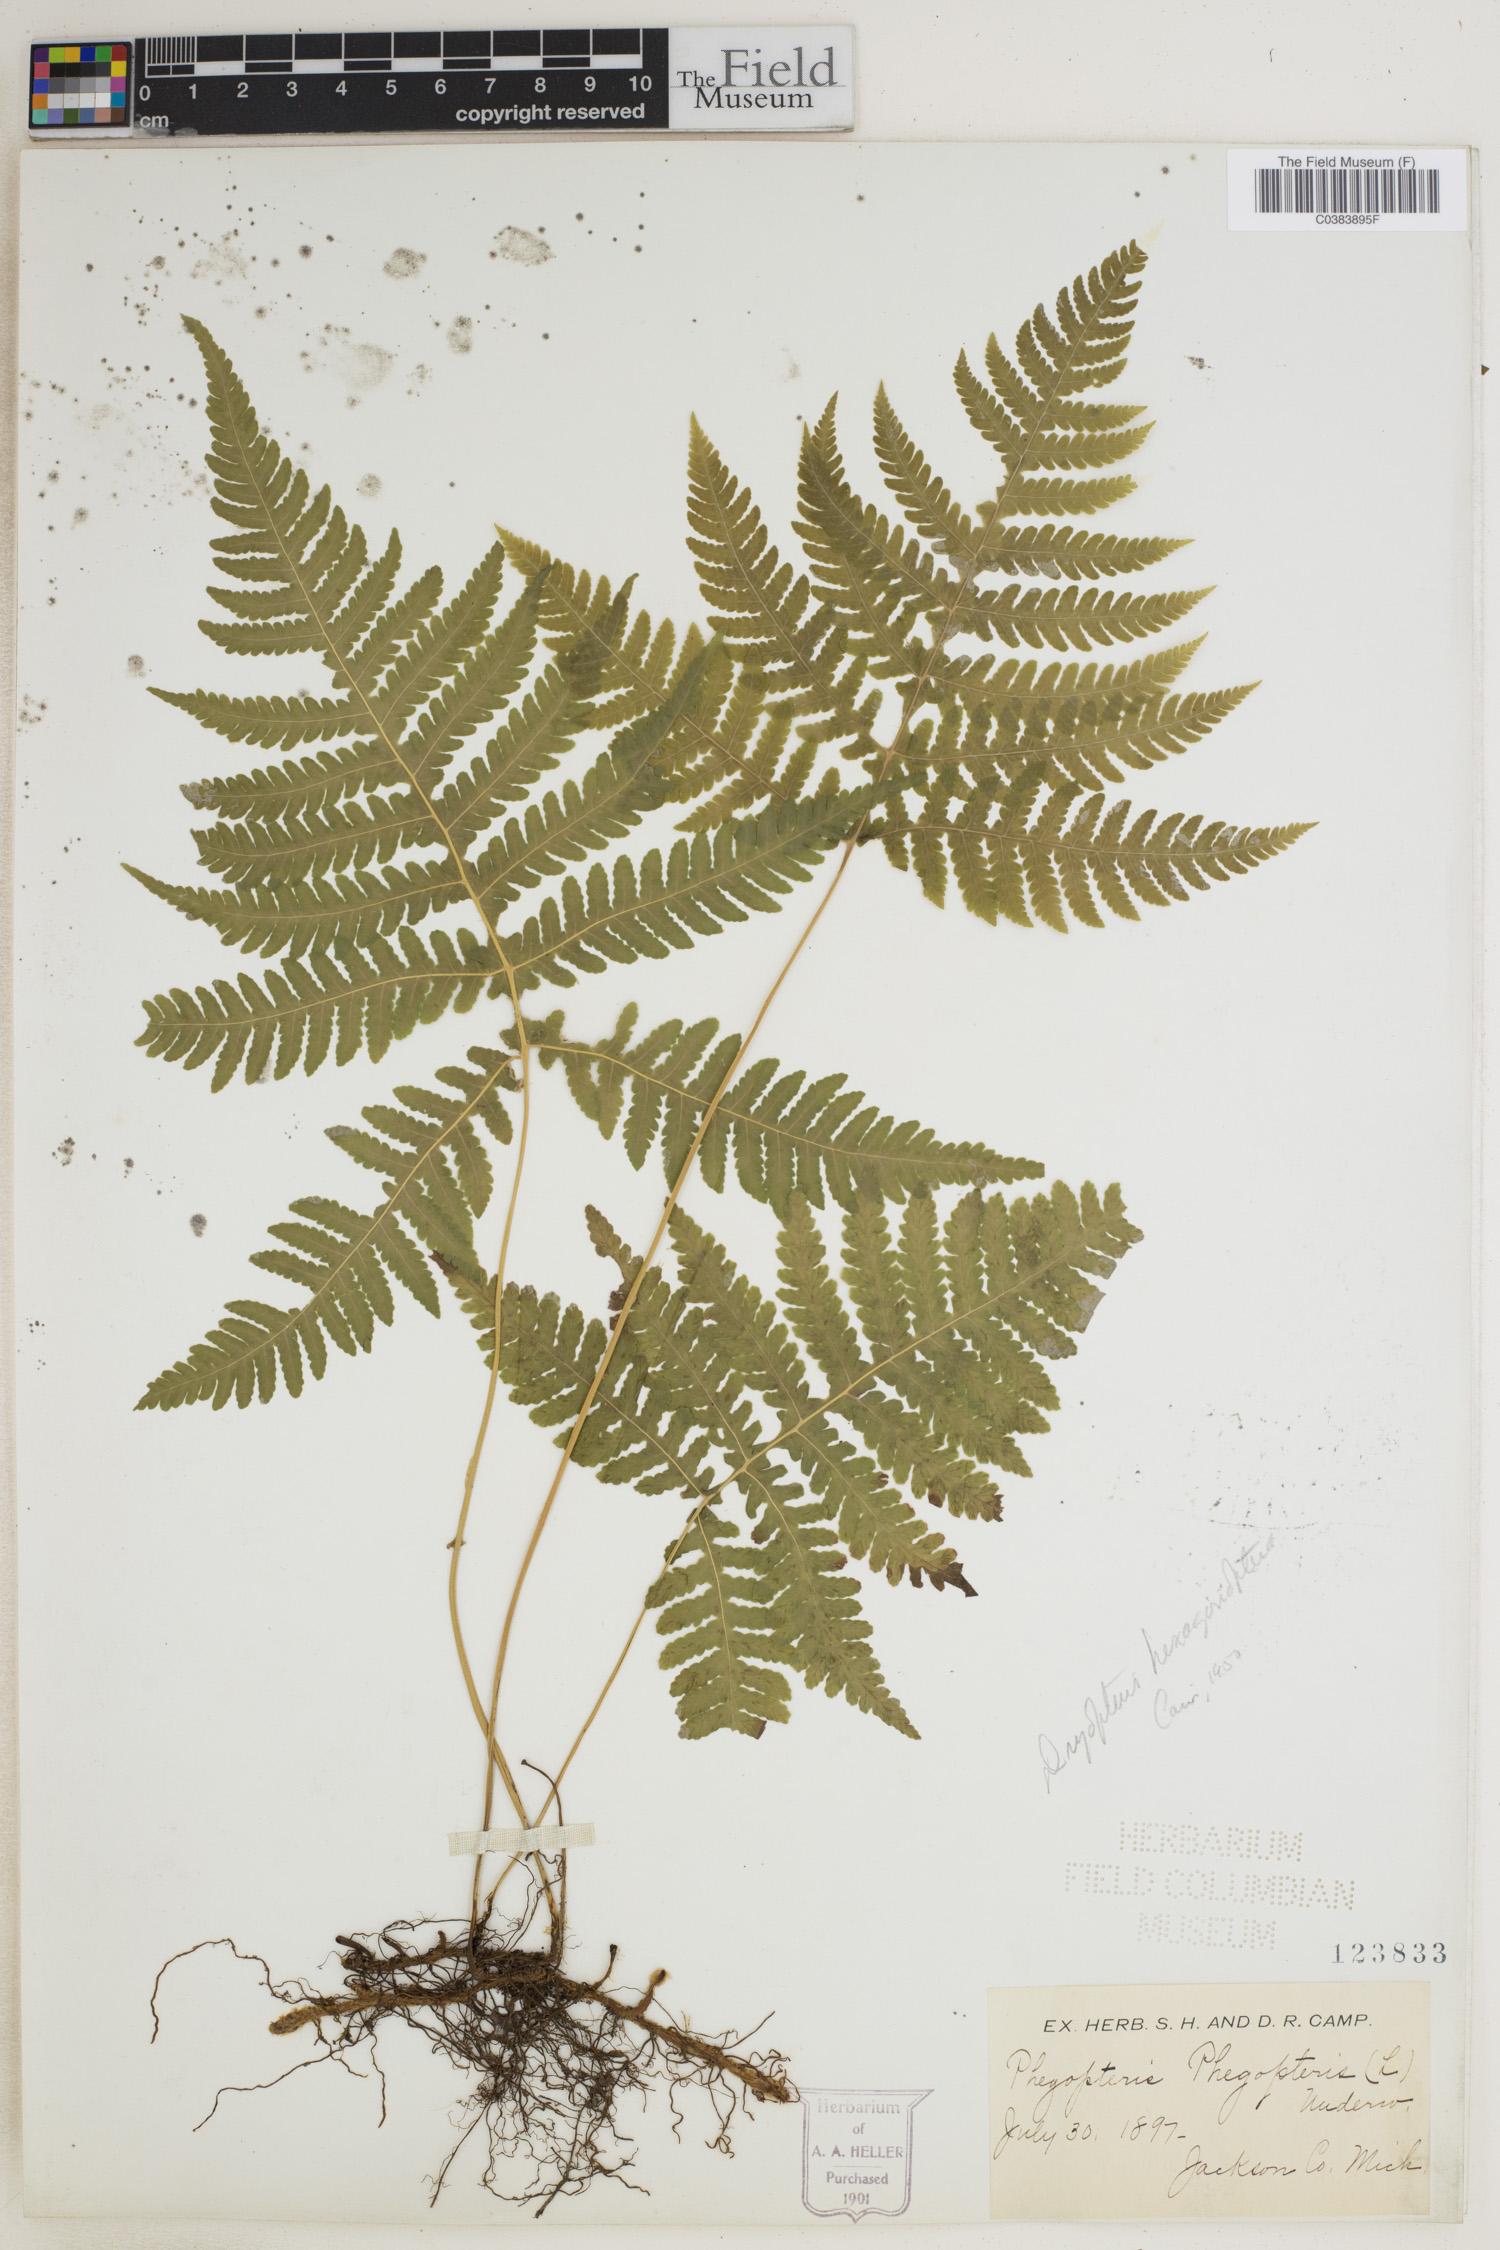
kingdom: Plantae
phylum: Tracheophyta
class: Polypodiopsida
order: Polypodiales
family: Thelypteridaceae
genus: Phegopteris
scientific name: Phegopteris hexagonoptera
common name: Broad beech fern
